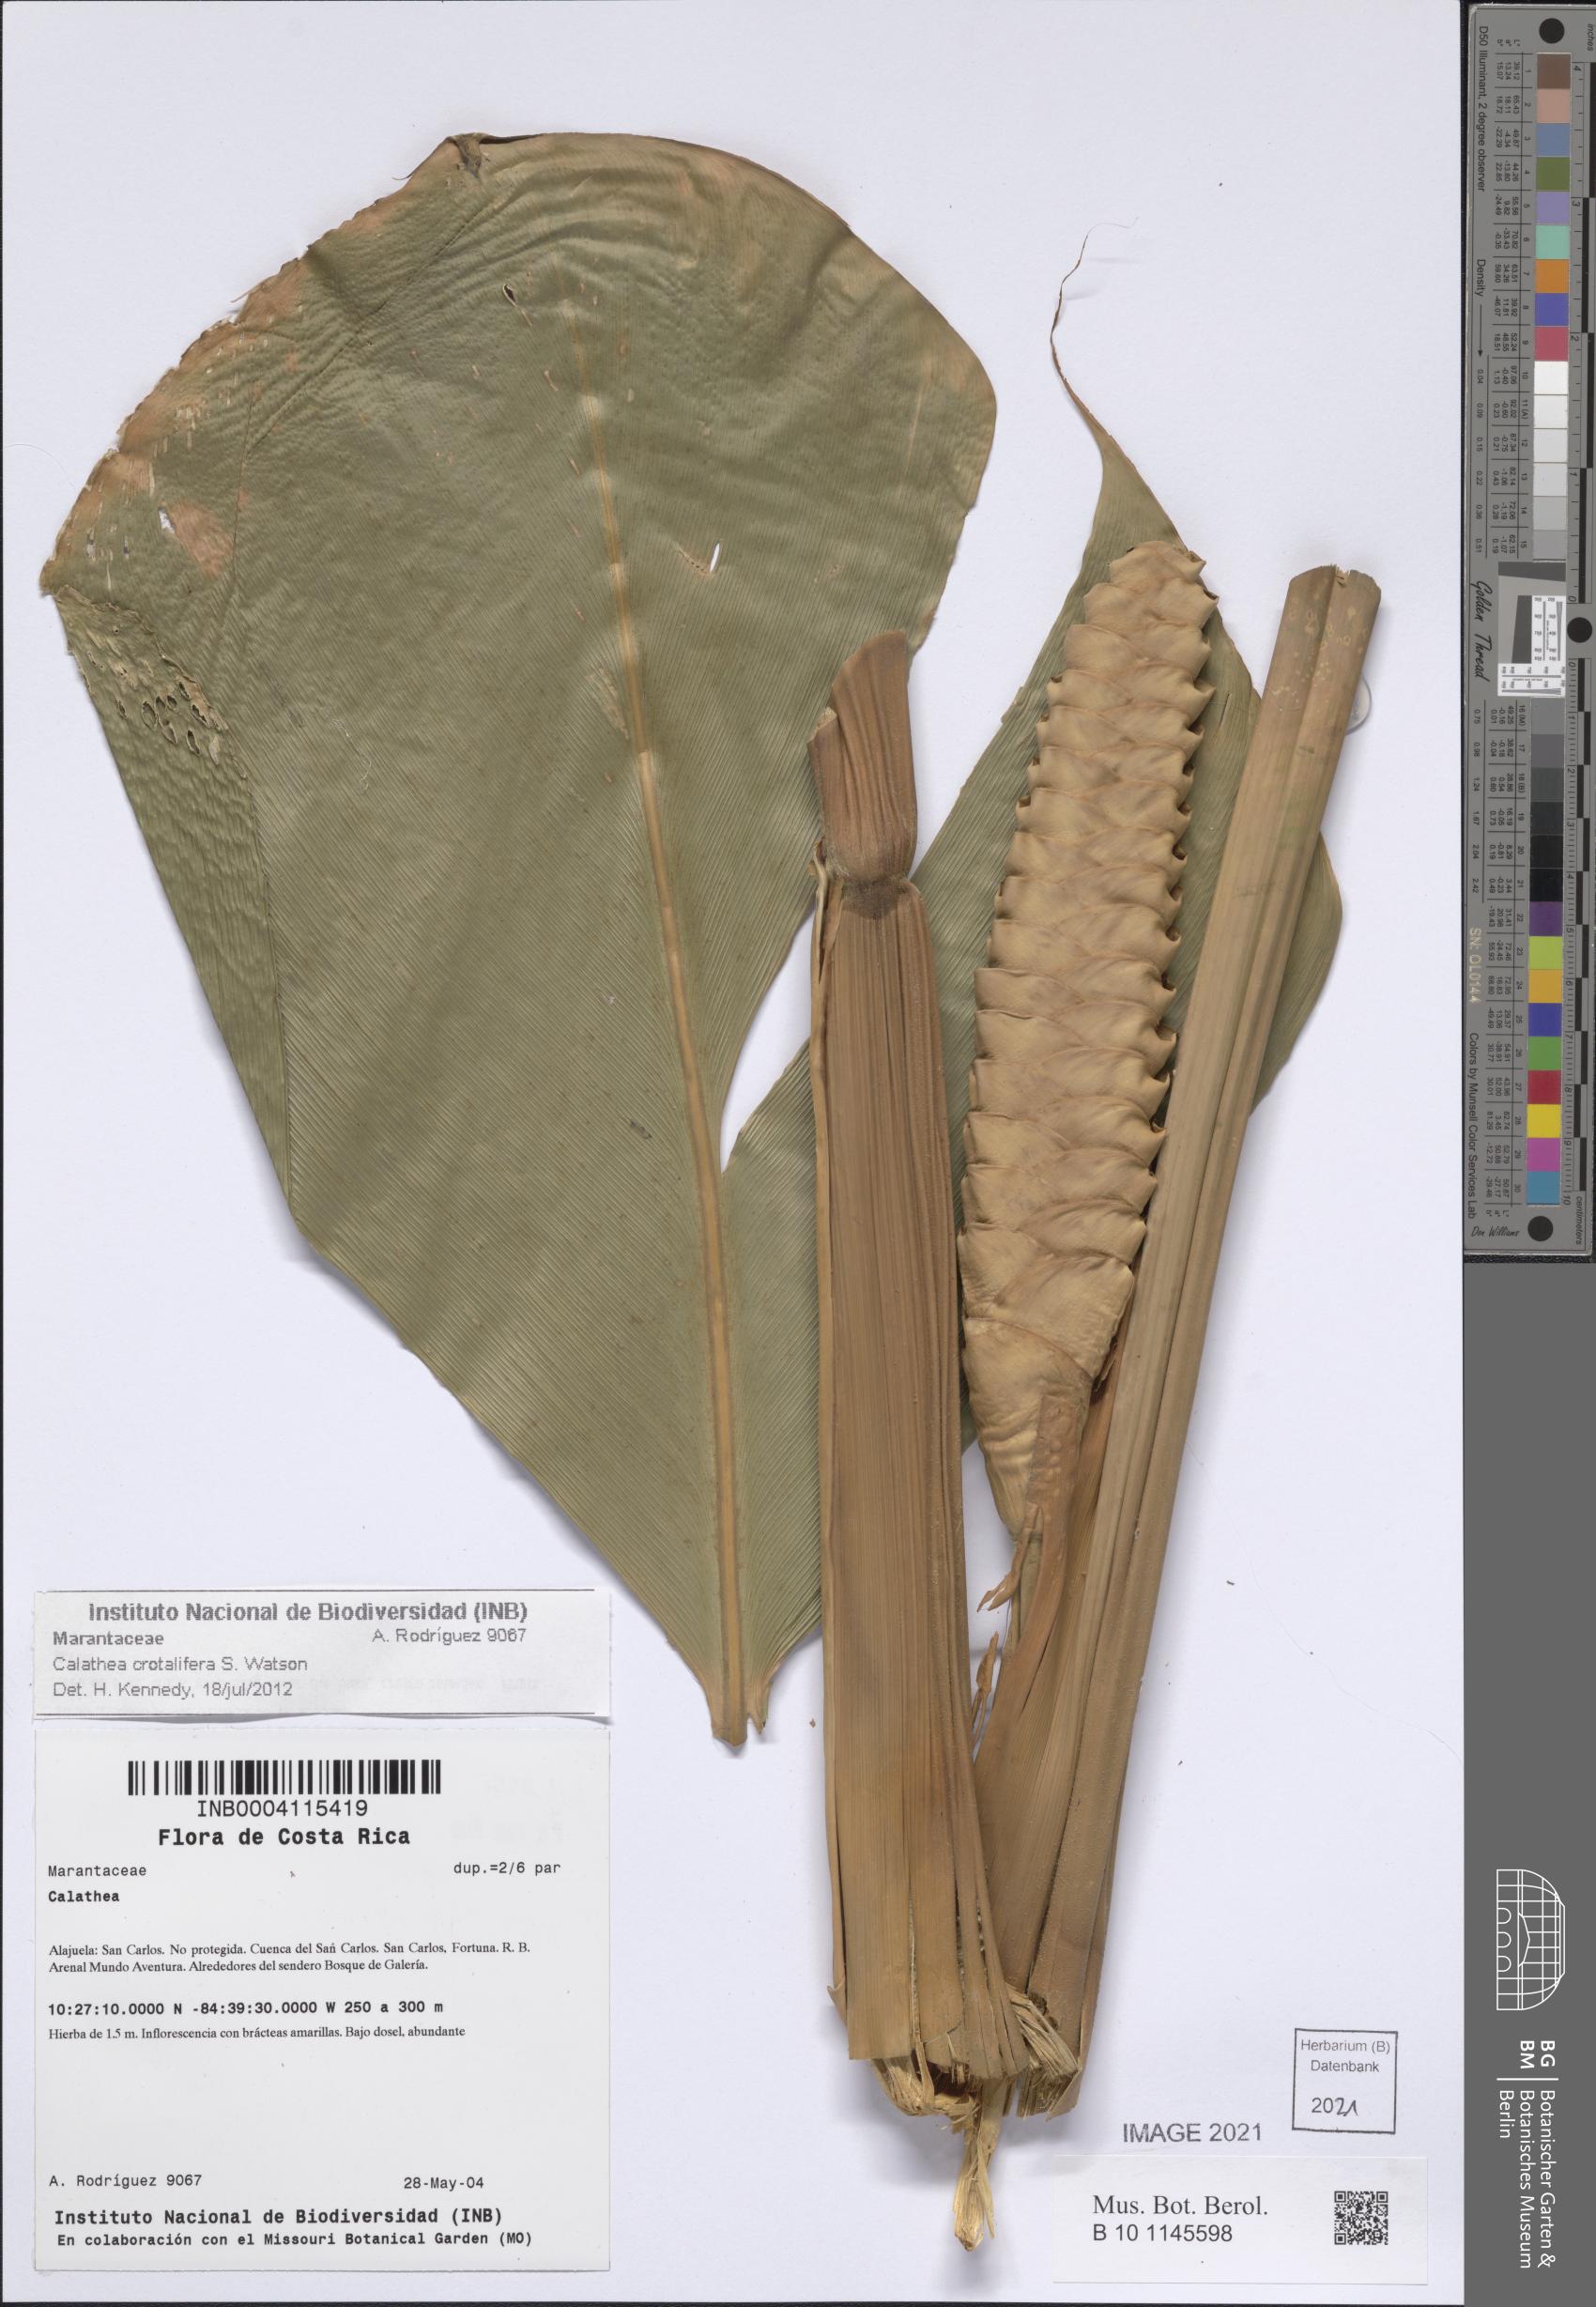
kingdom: Plantae
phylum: Tracheophyta
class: Liliopsida
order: Zingiberales
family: Marantaceae
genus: Calathea
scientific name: Calathea crotalifera
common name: Rattlesnake plant
